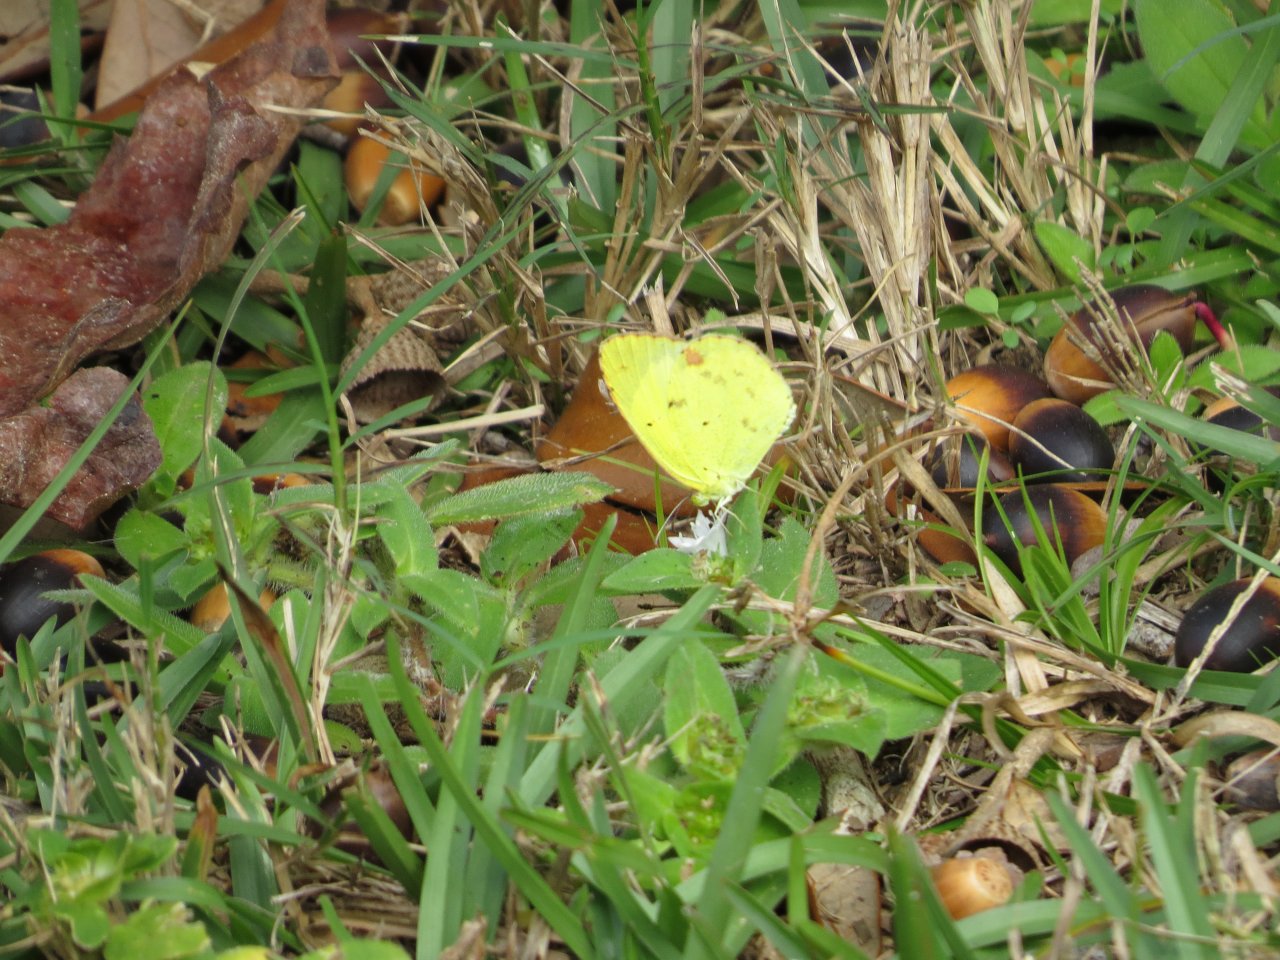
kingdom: Animalia
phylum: Arthropoda
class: Insecta
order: Lepidoptera
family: Pieridae
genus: Pyrisitia
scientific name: Pyrisitia lisa
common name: Little Yellow
